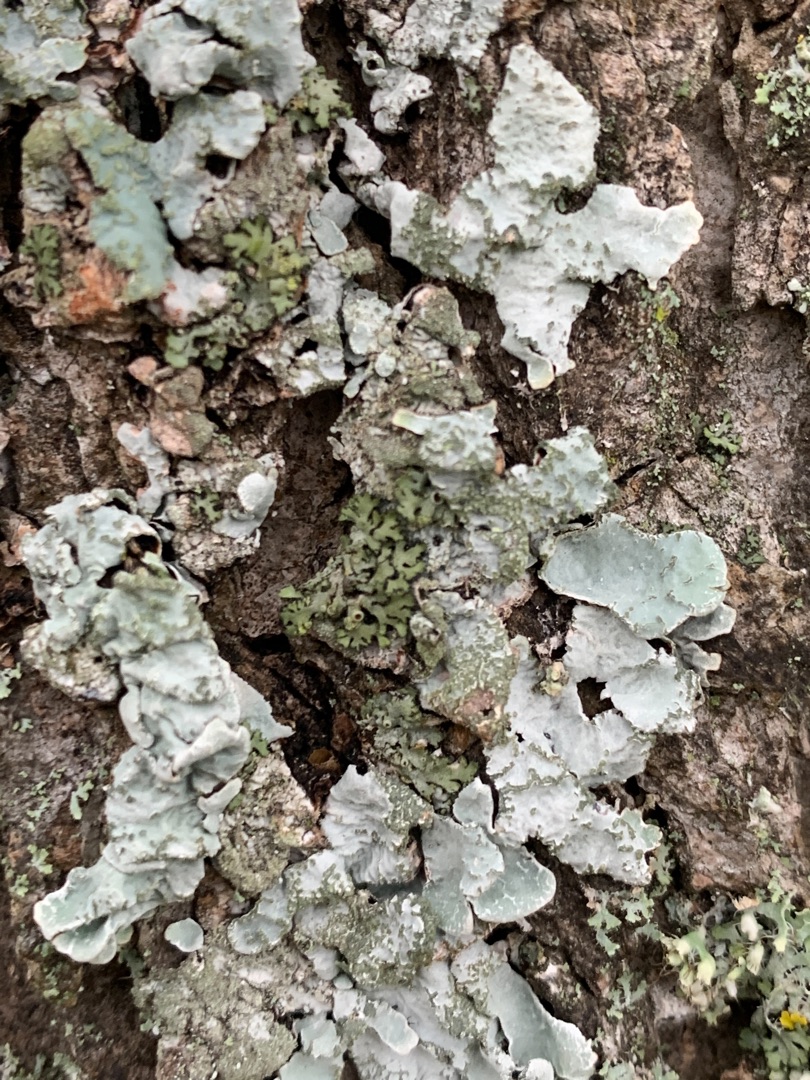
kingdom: Fungi
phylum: Ascomycota
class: Lecanoromycetes
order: Lecanorales
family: Parmeliaceae
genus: Parmelia
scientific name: Parmelia sulcata
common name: Rynket skållav
